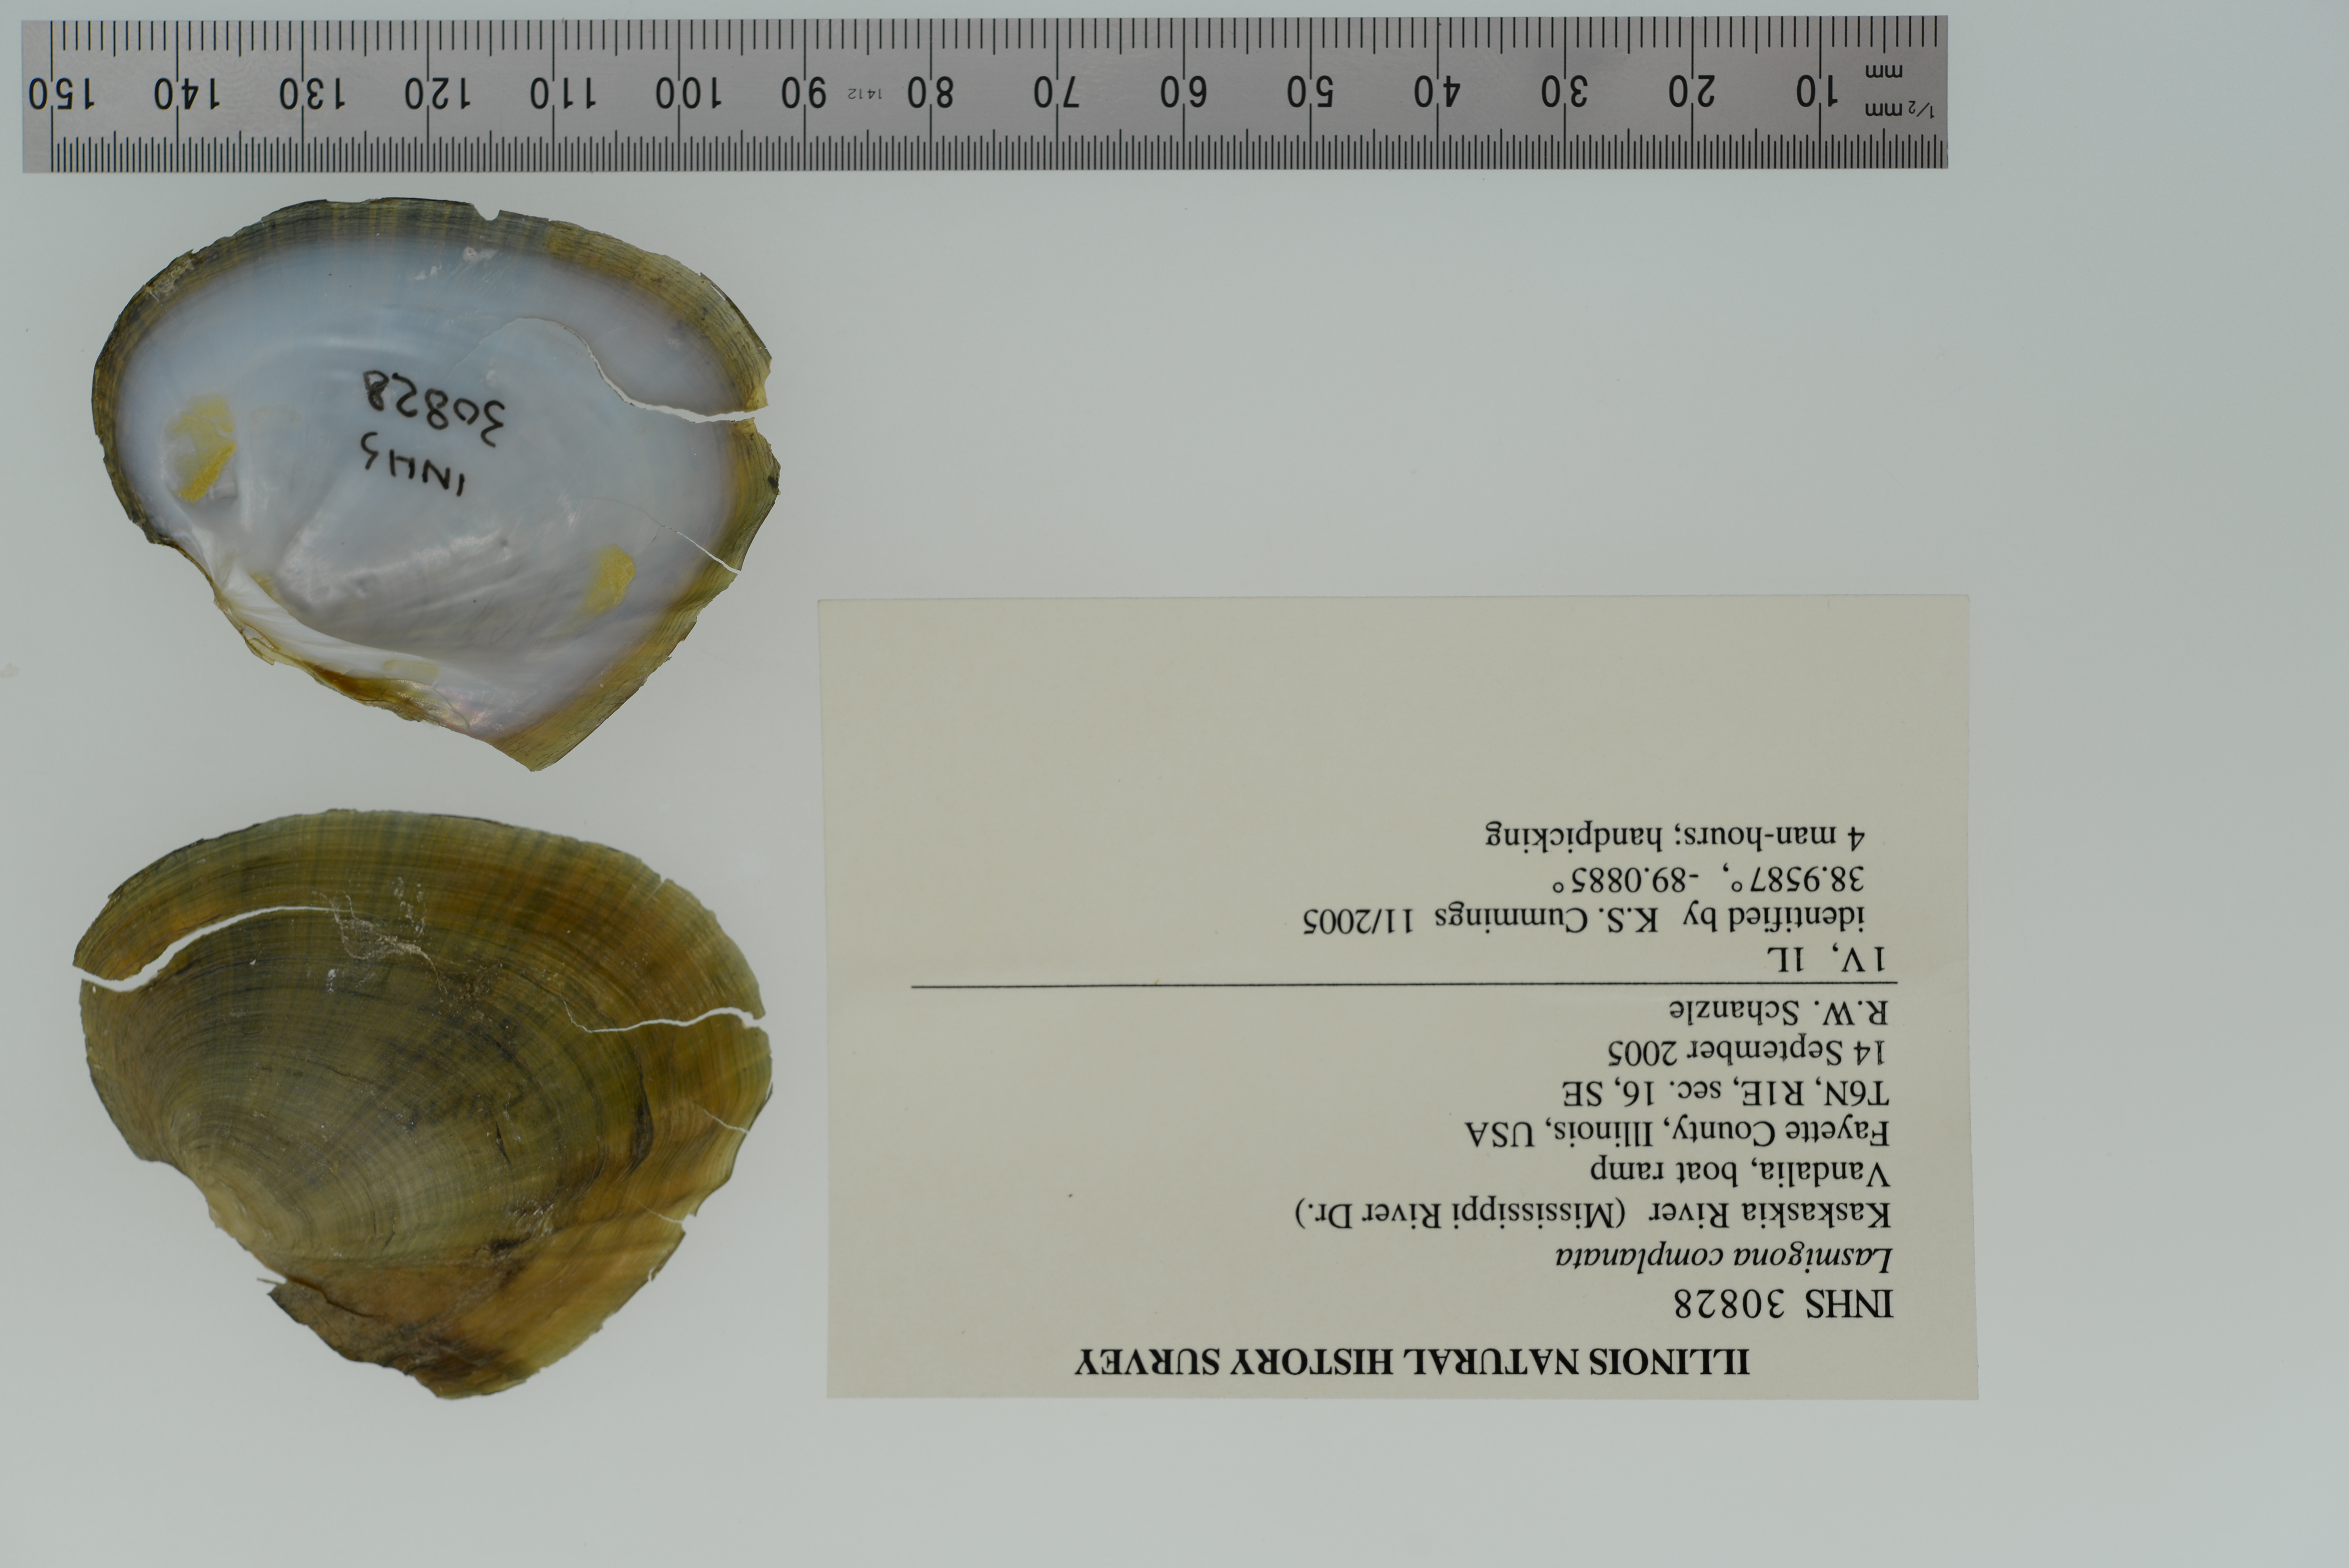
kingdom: Animalia
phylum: Mollusca
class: Bivalvia
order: Unionida
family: Unionidae
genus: Lasmigona
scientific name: Lasmigona complanata
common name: White heelsplitter
